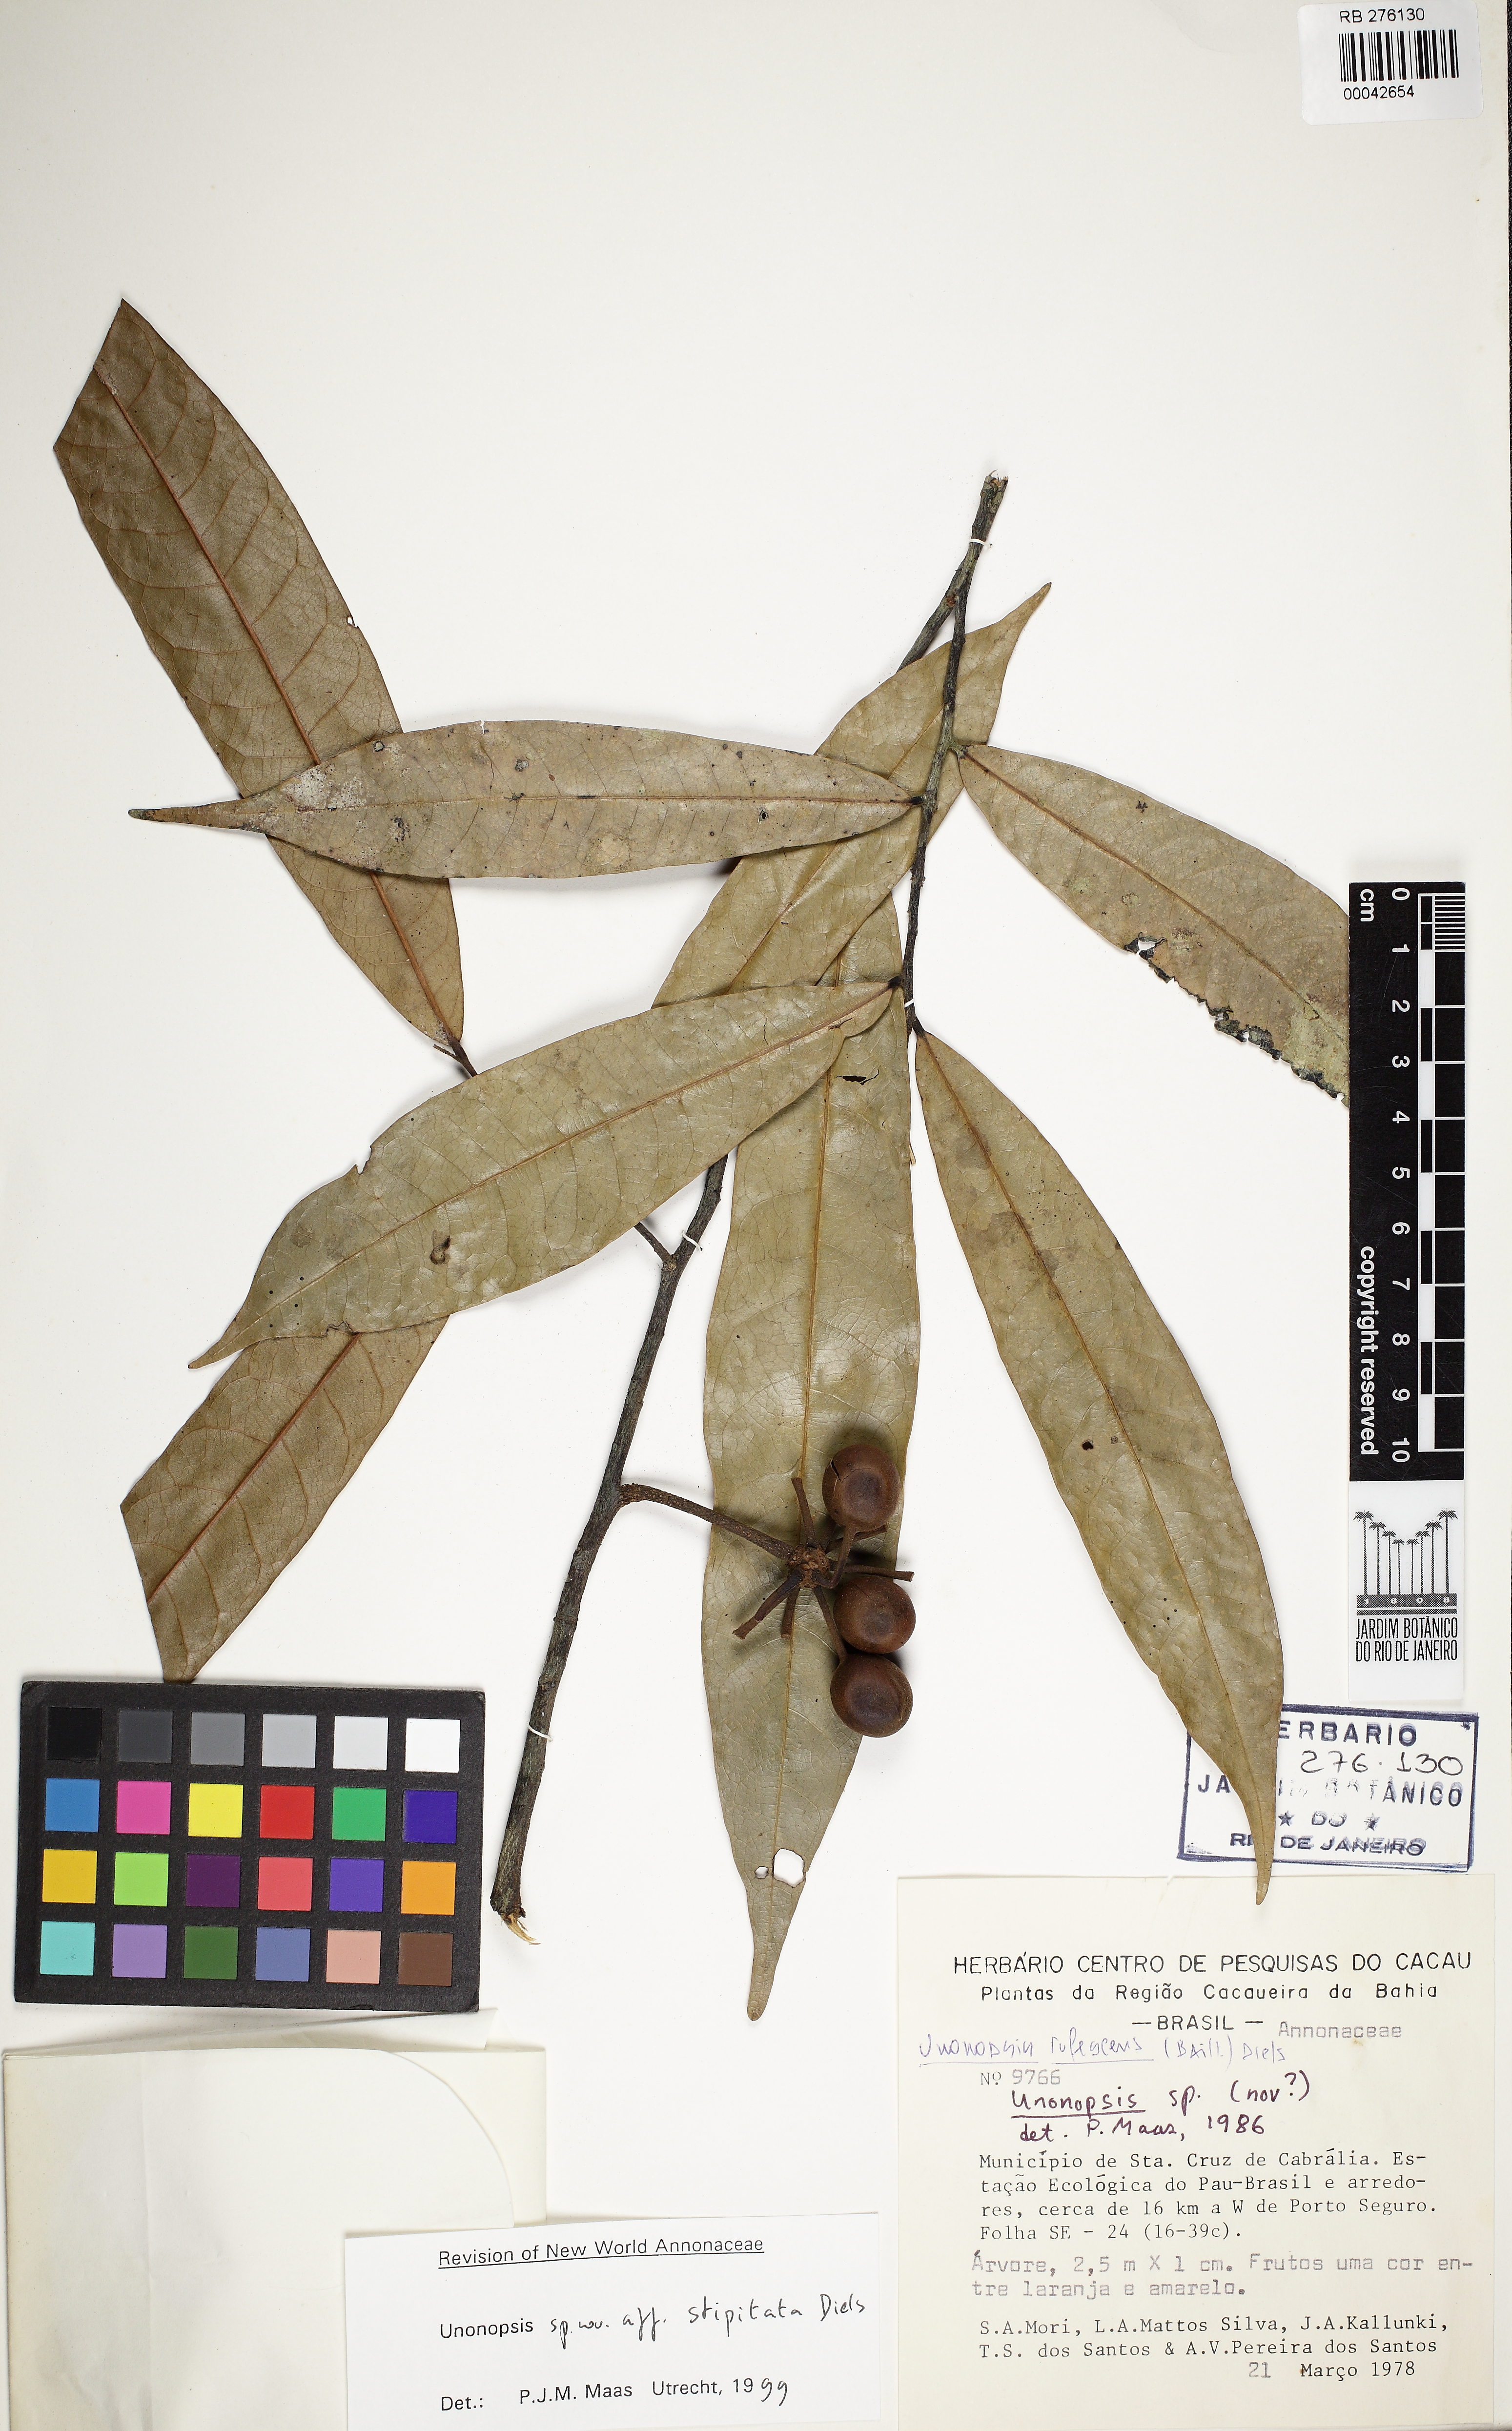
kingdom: Plantae
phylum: Tracheophyta
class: Magnoliopsida
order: Magnoliales
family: Annonaceae
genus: Unonopsis
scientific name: Unonopsis bahiensis
